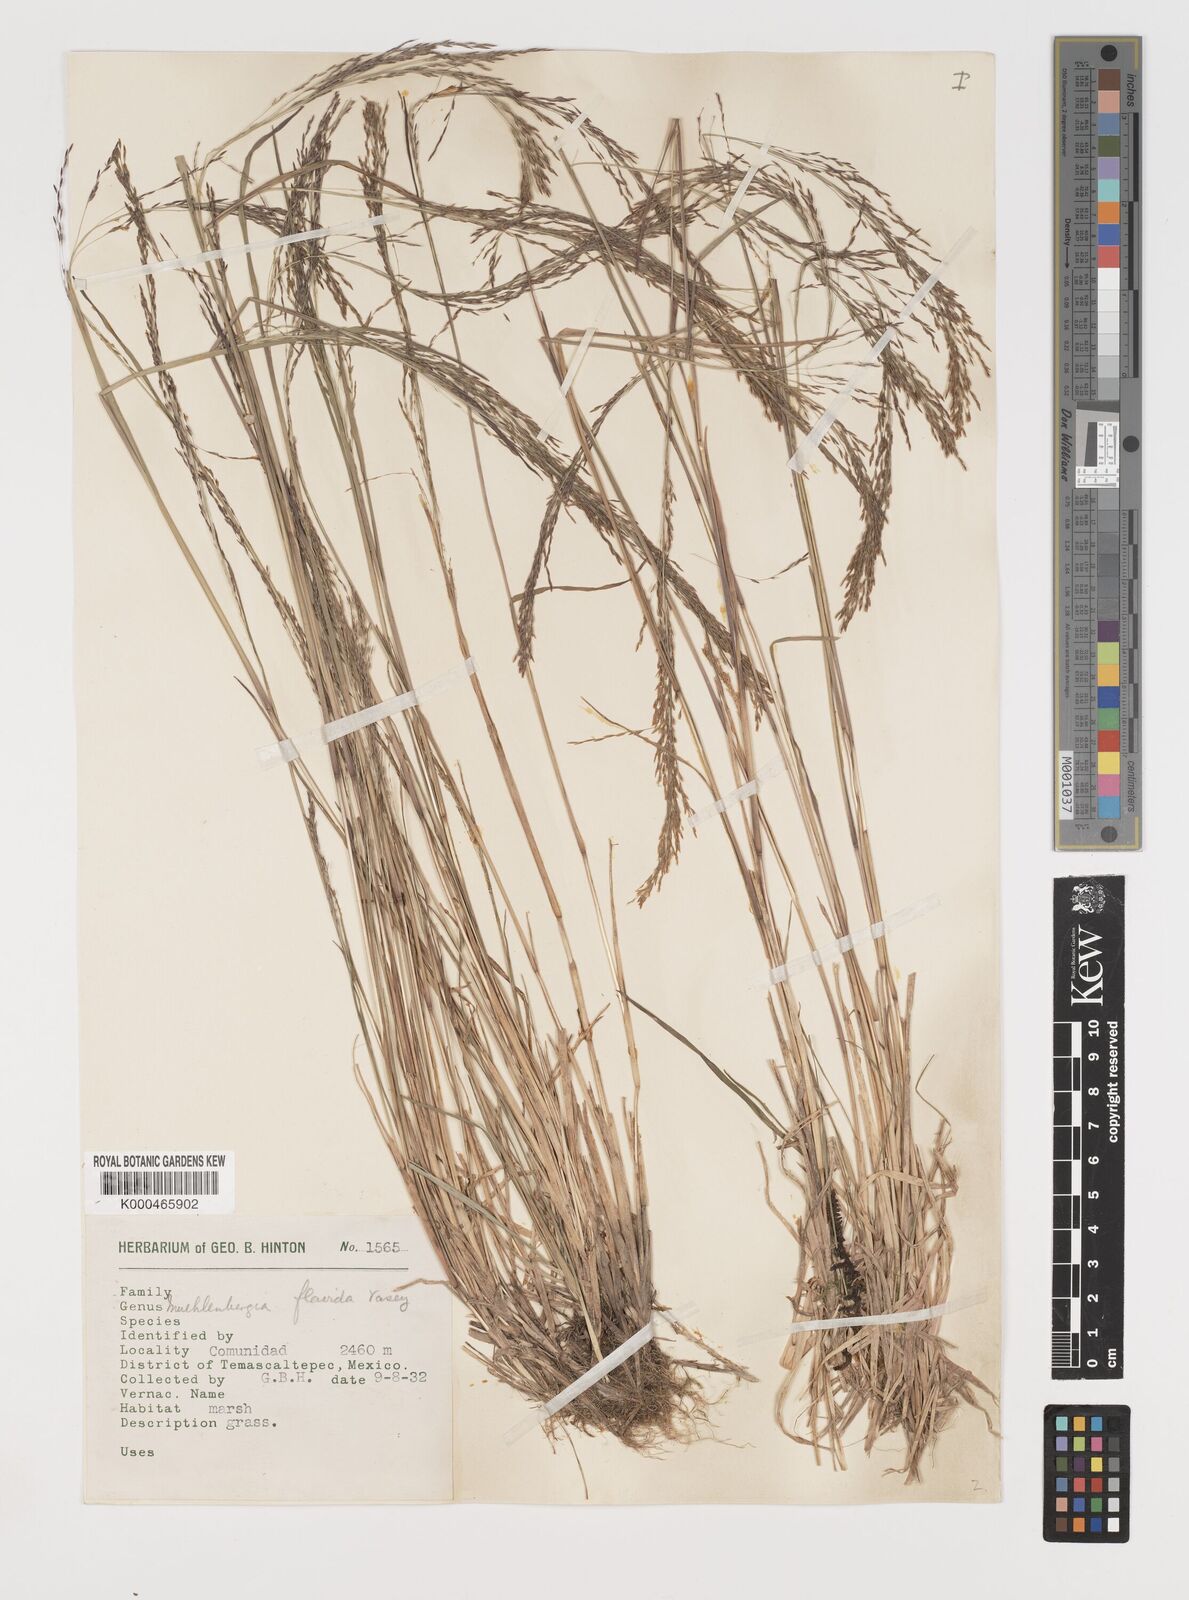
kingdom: Plantae
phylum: Tracheophyta
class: Liliopsida
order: Poales
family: Poaceae
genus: Muhlenbergia
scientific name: Muhlenbergia flavida
